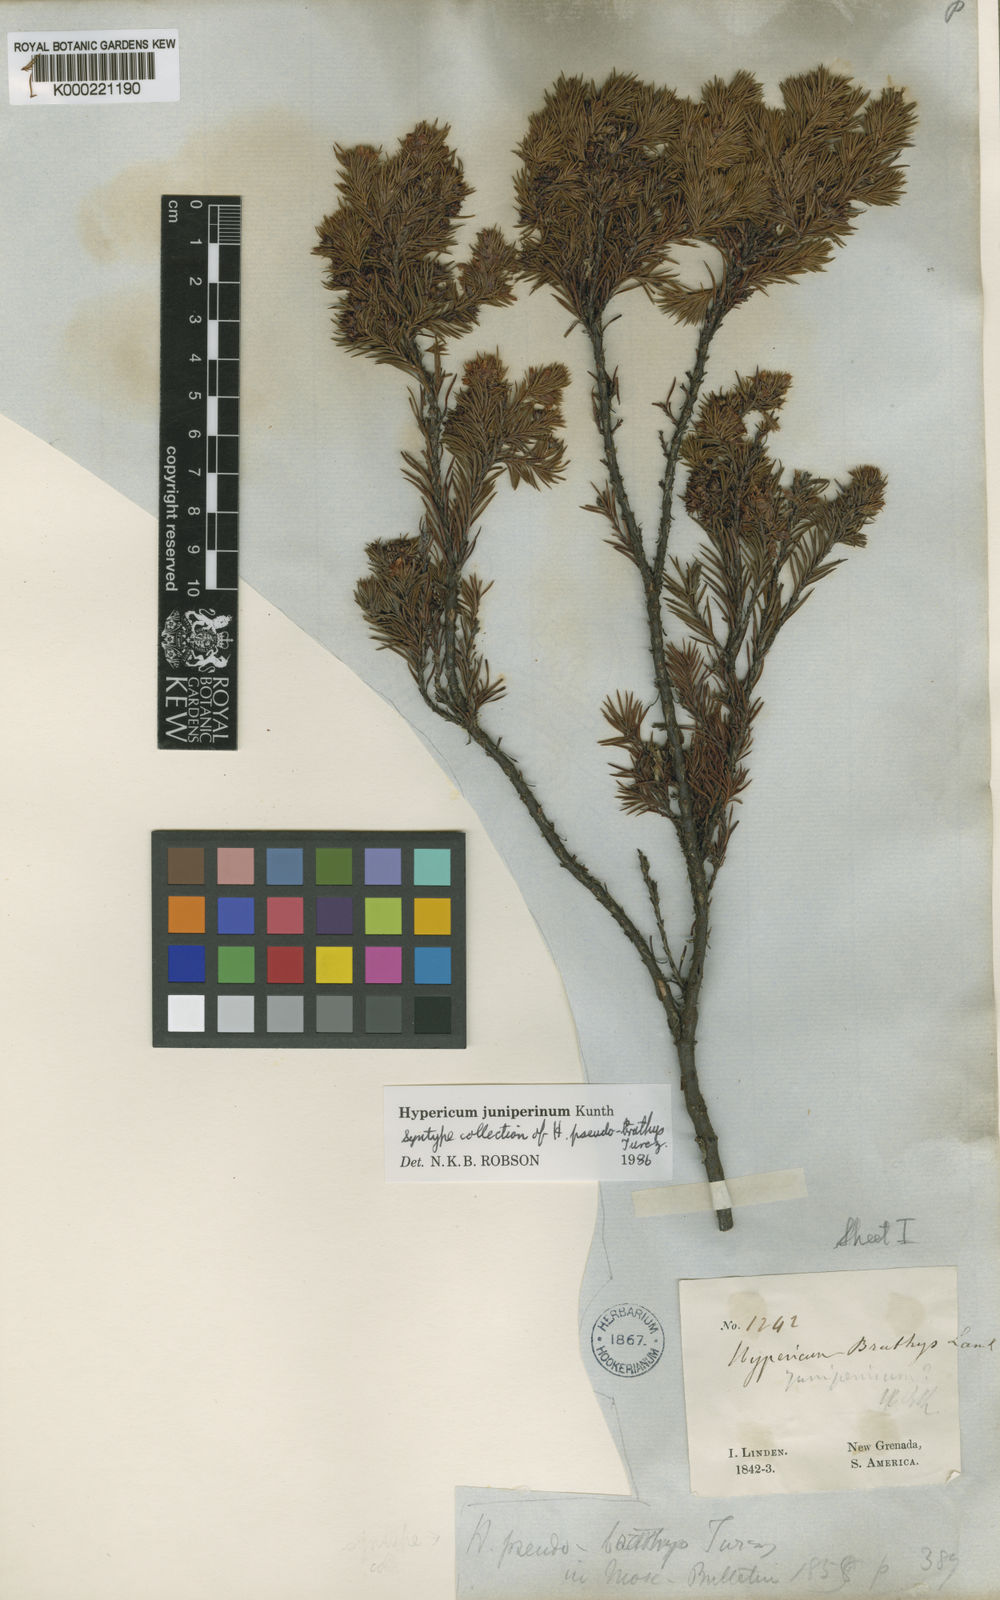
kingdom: Plantae
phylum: Tracheophyta
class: Magnoliopsida
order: Malpighiales
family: Hypericaceae
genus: Hypericum
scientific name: Hypericum juniperinum
